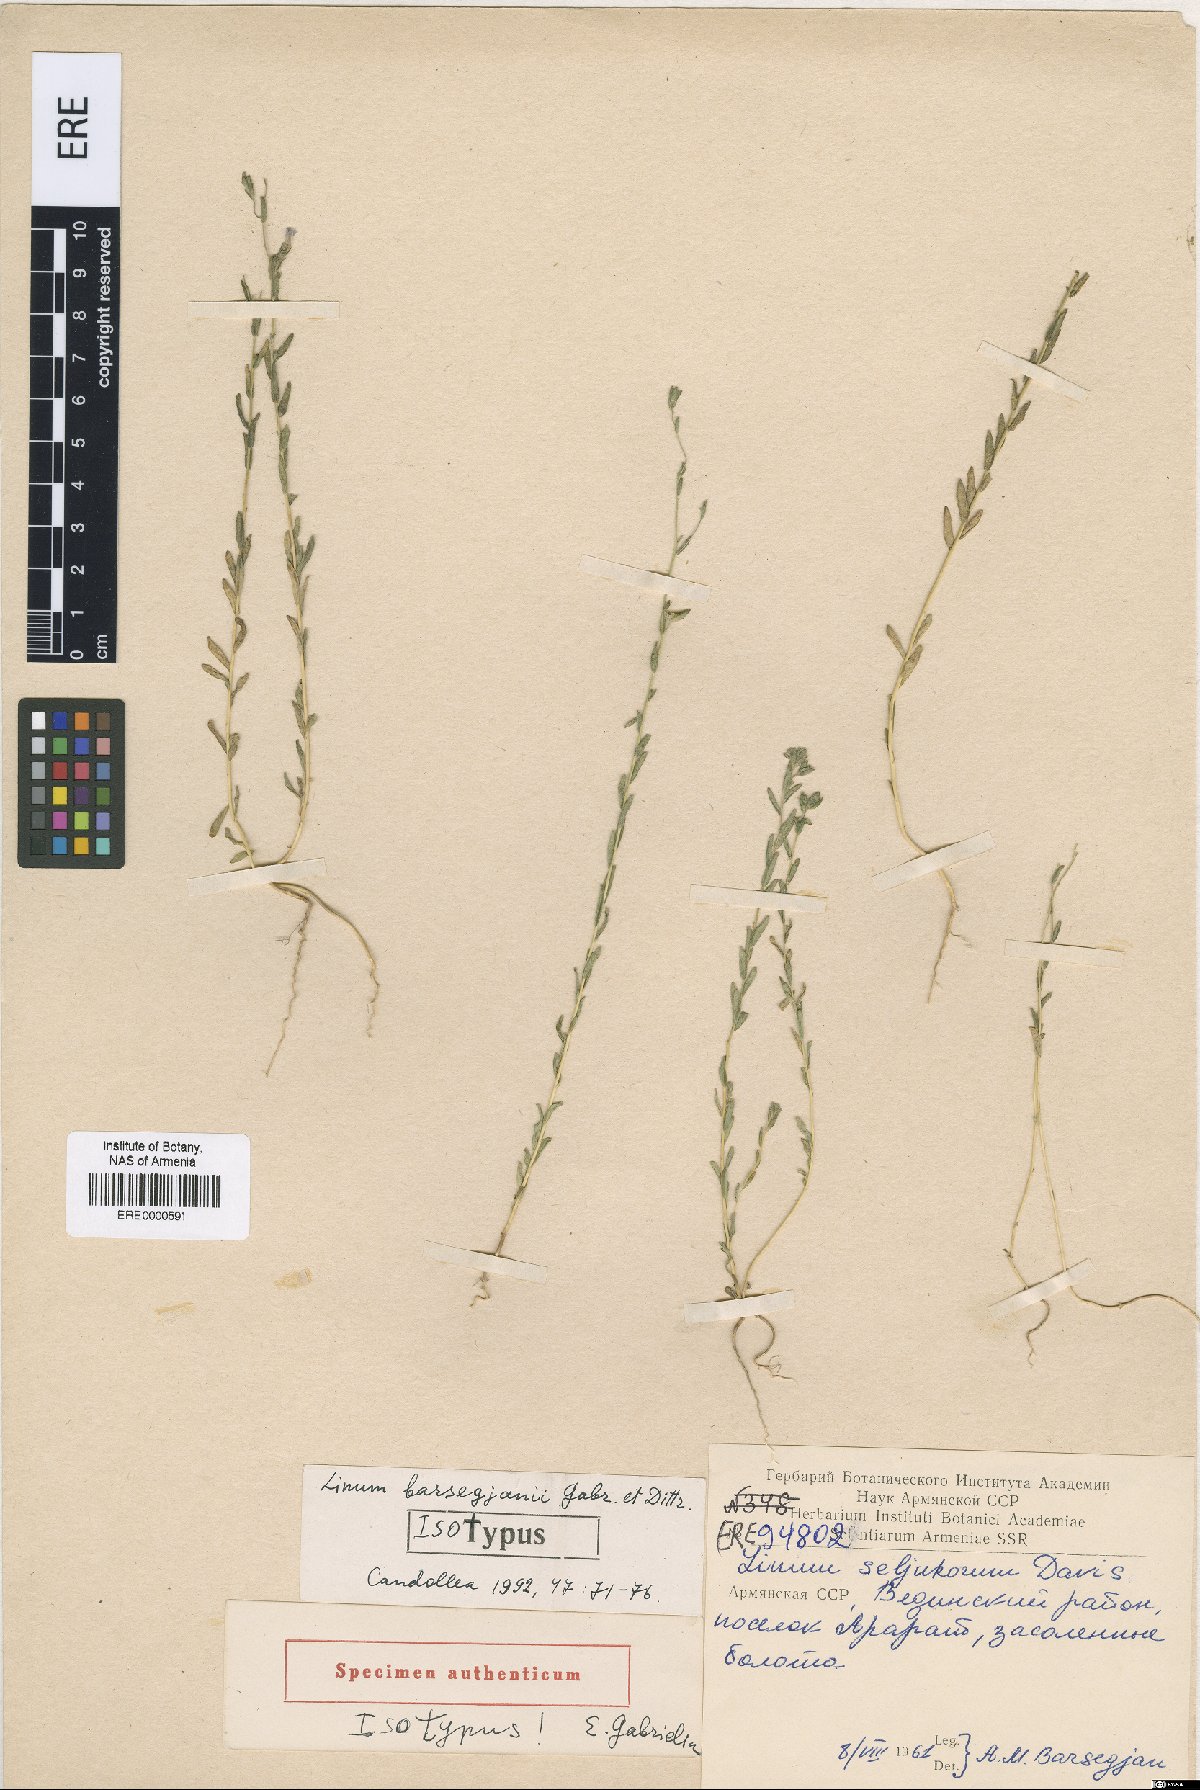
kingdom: Plantae
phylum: Tracheophyta
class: Magnoliopsida
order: Malpighiales
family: Linaceae
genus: Linum
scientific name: Linum seljukorum
